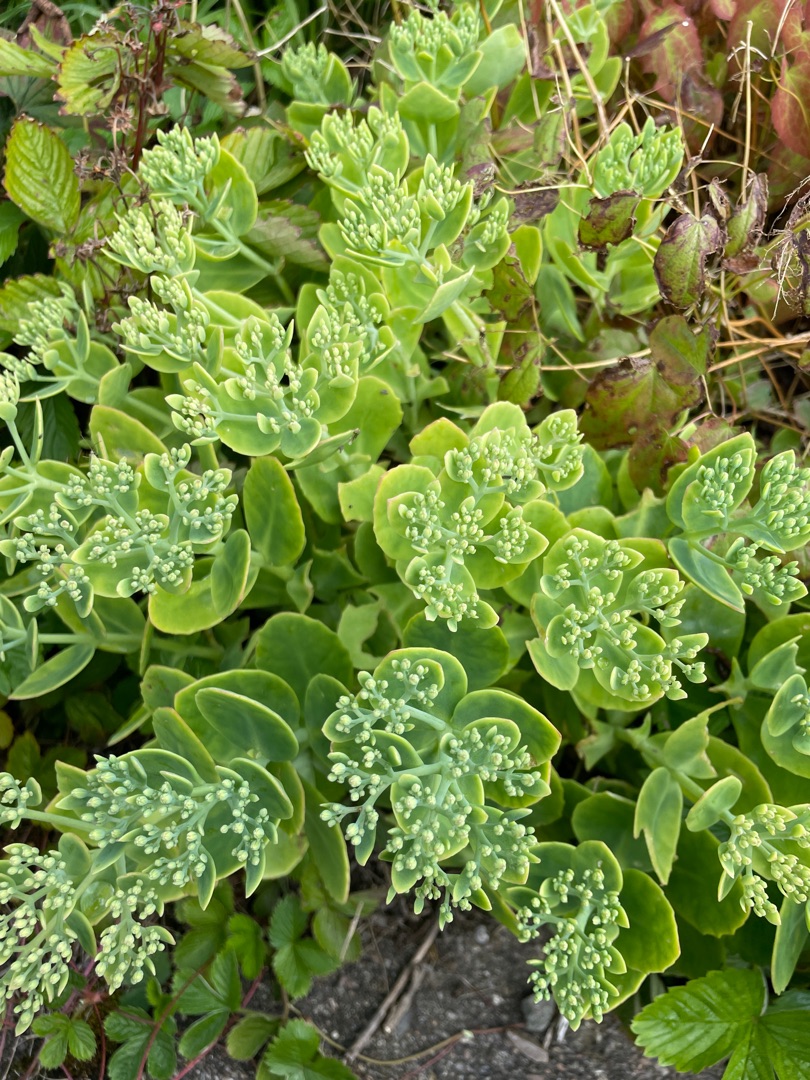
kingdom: Plantae
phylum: Tracheophyta
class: Magnoliopsida
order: Saxifragales
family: Crassulaceae
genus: Hylotelephium
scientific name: Hylotelephium spectabile
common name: Kinesisk sankthansurt
